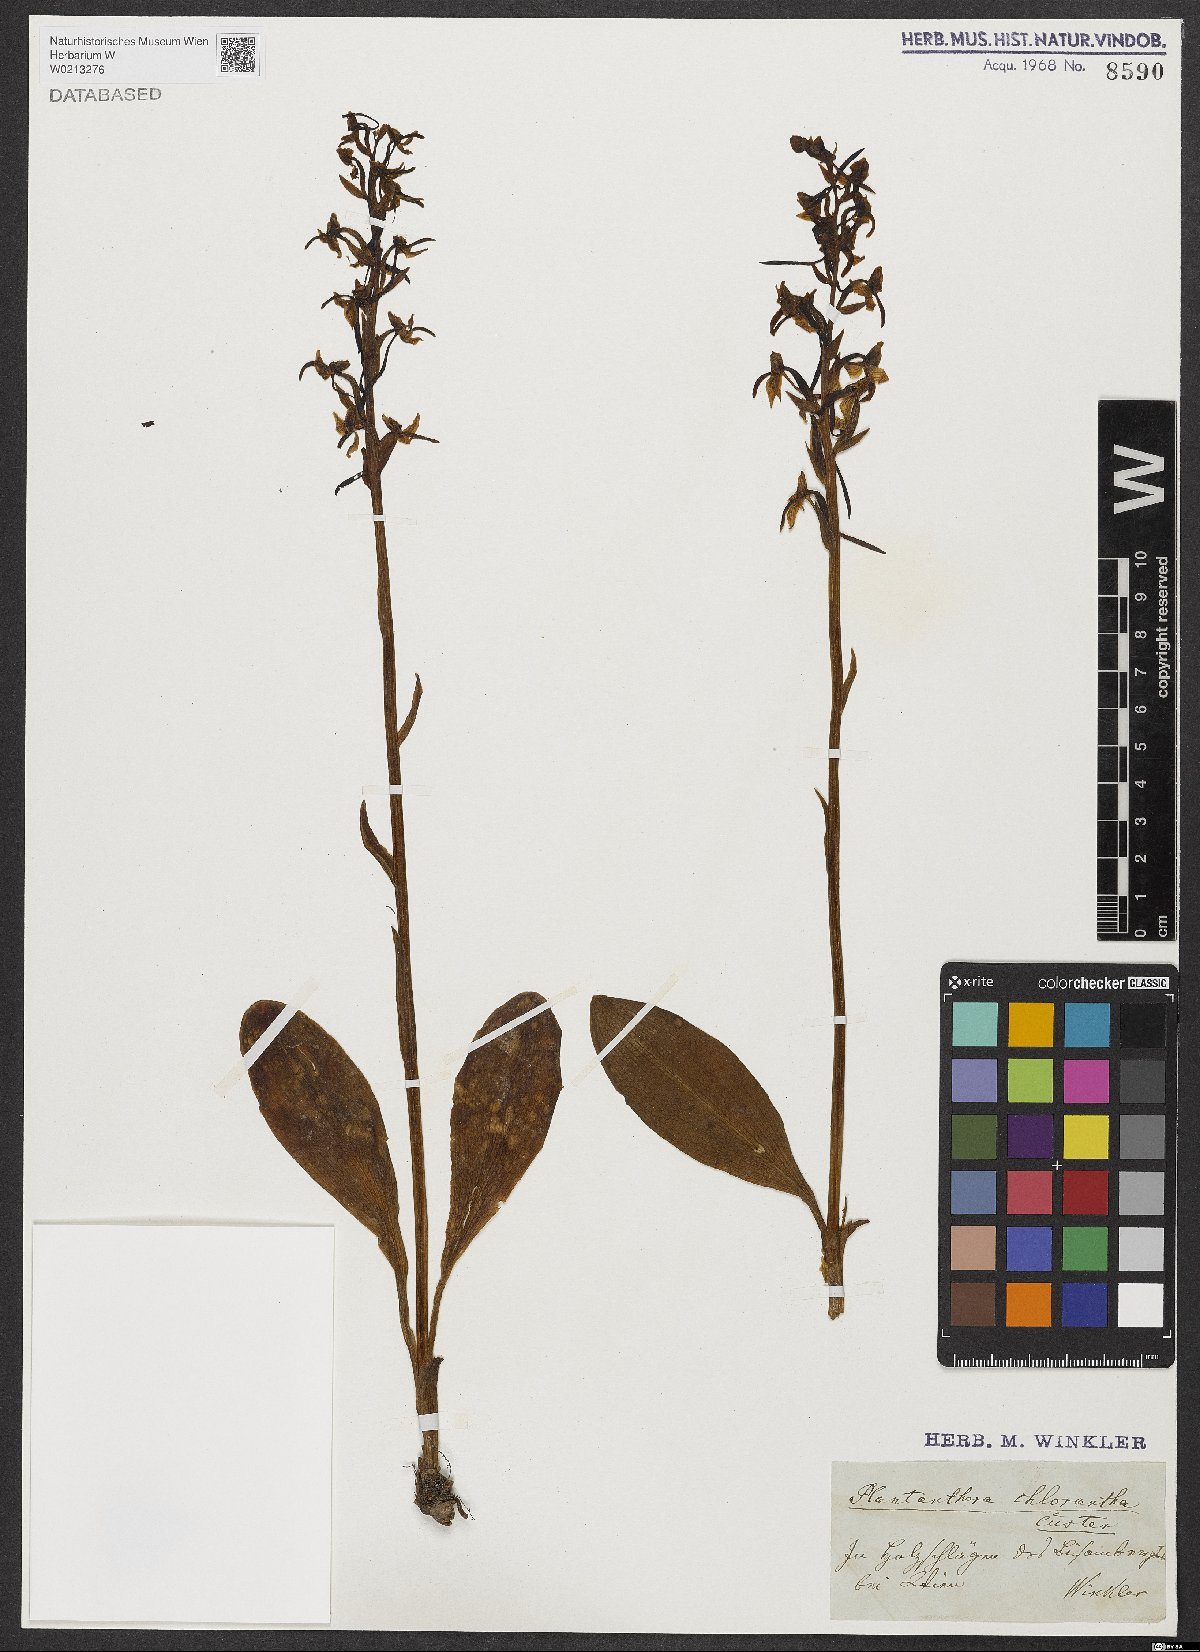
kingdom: Plantae
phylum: Tracheophyta
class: Liliopsida
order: Asparagales
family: Orchidaceae
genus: Platanthera
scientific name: Platanthera chlorantha
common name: Greater butterfly-orchid
